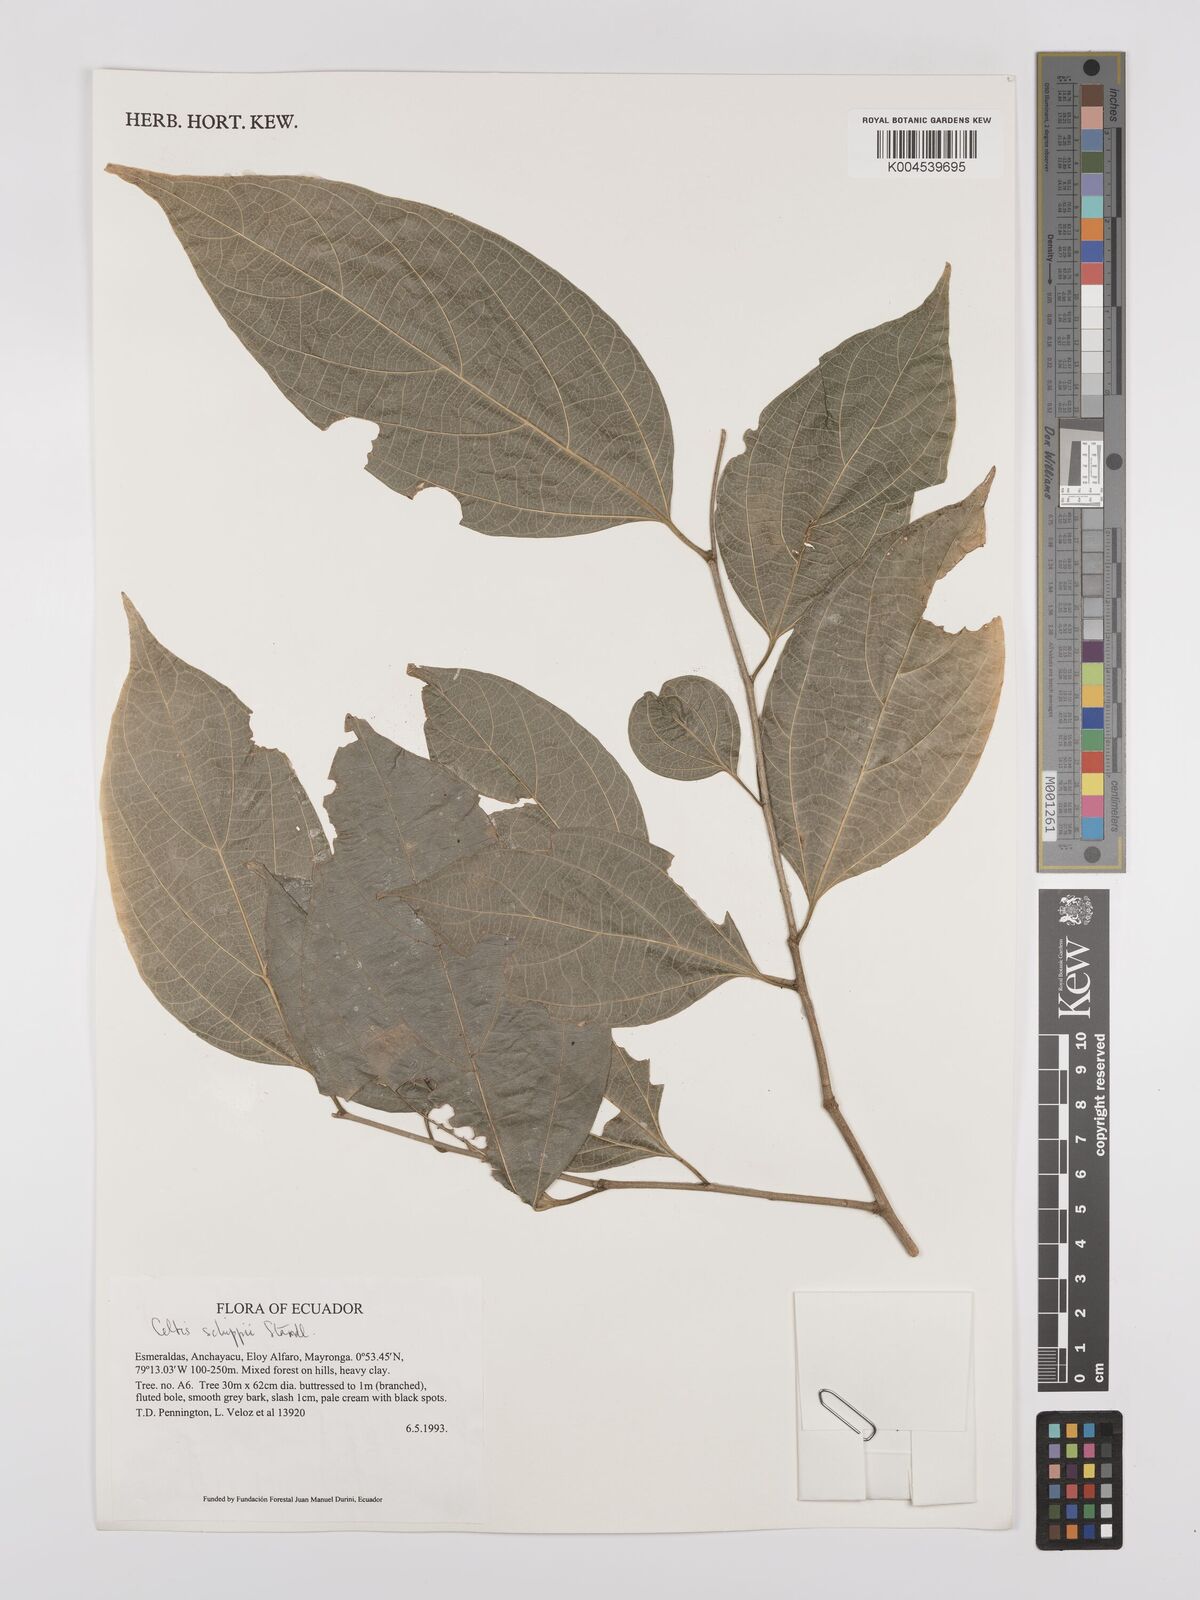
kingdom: Plantae
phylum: Tracheophyta
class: Magnoliopsida
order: Rosales
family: Cannabaceae
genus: Celtis
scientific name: Celtis schippii
